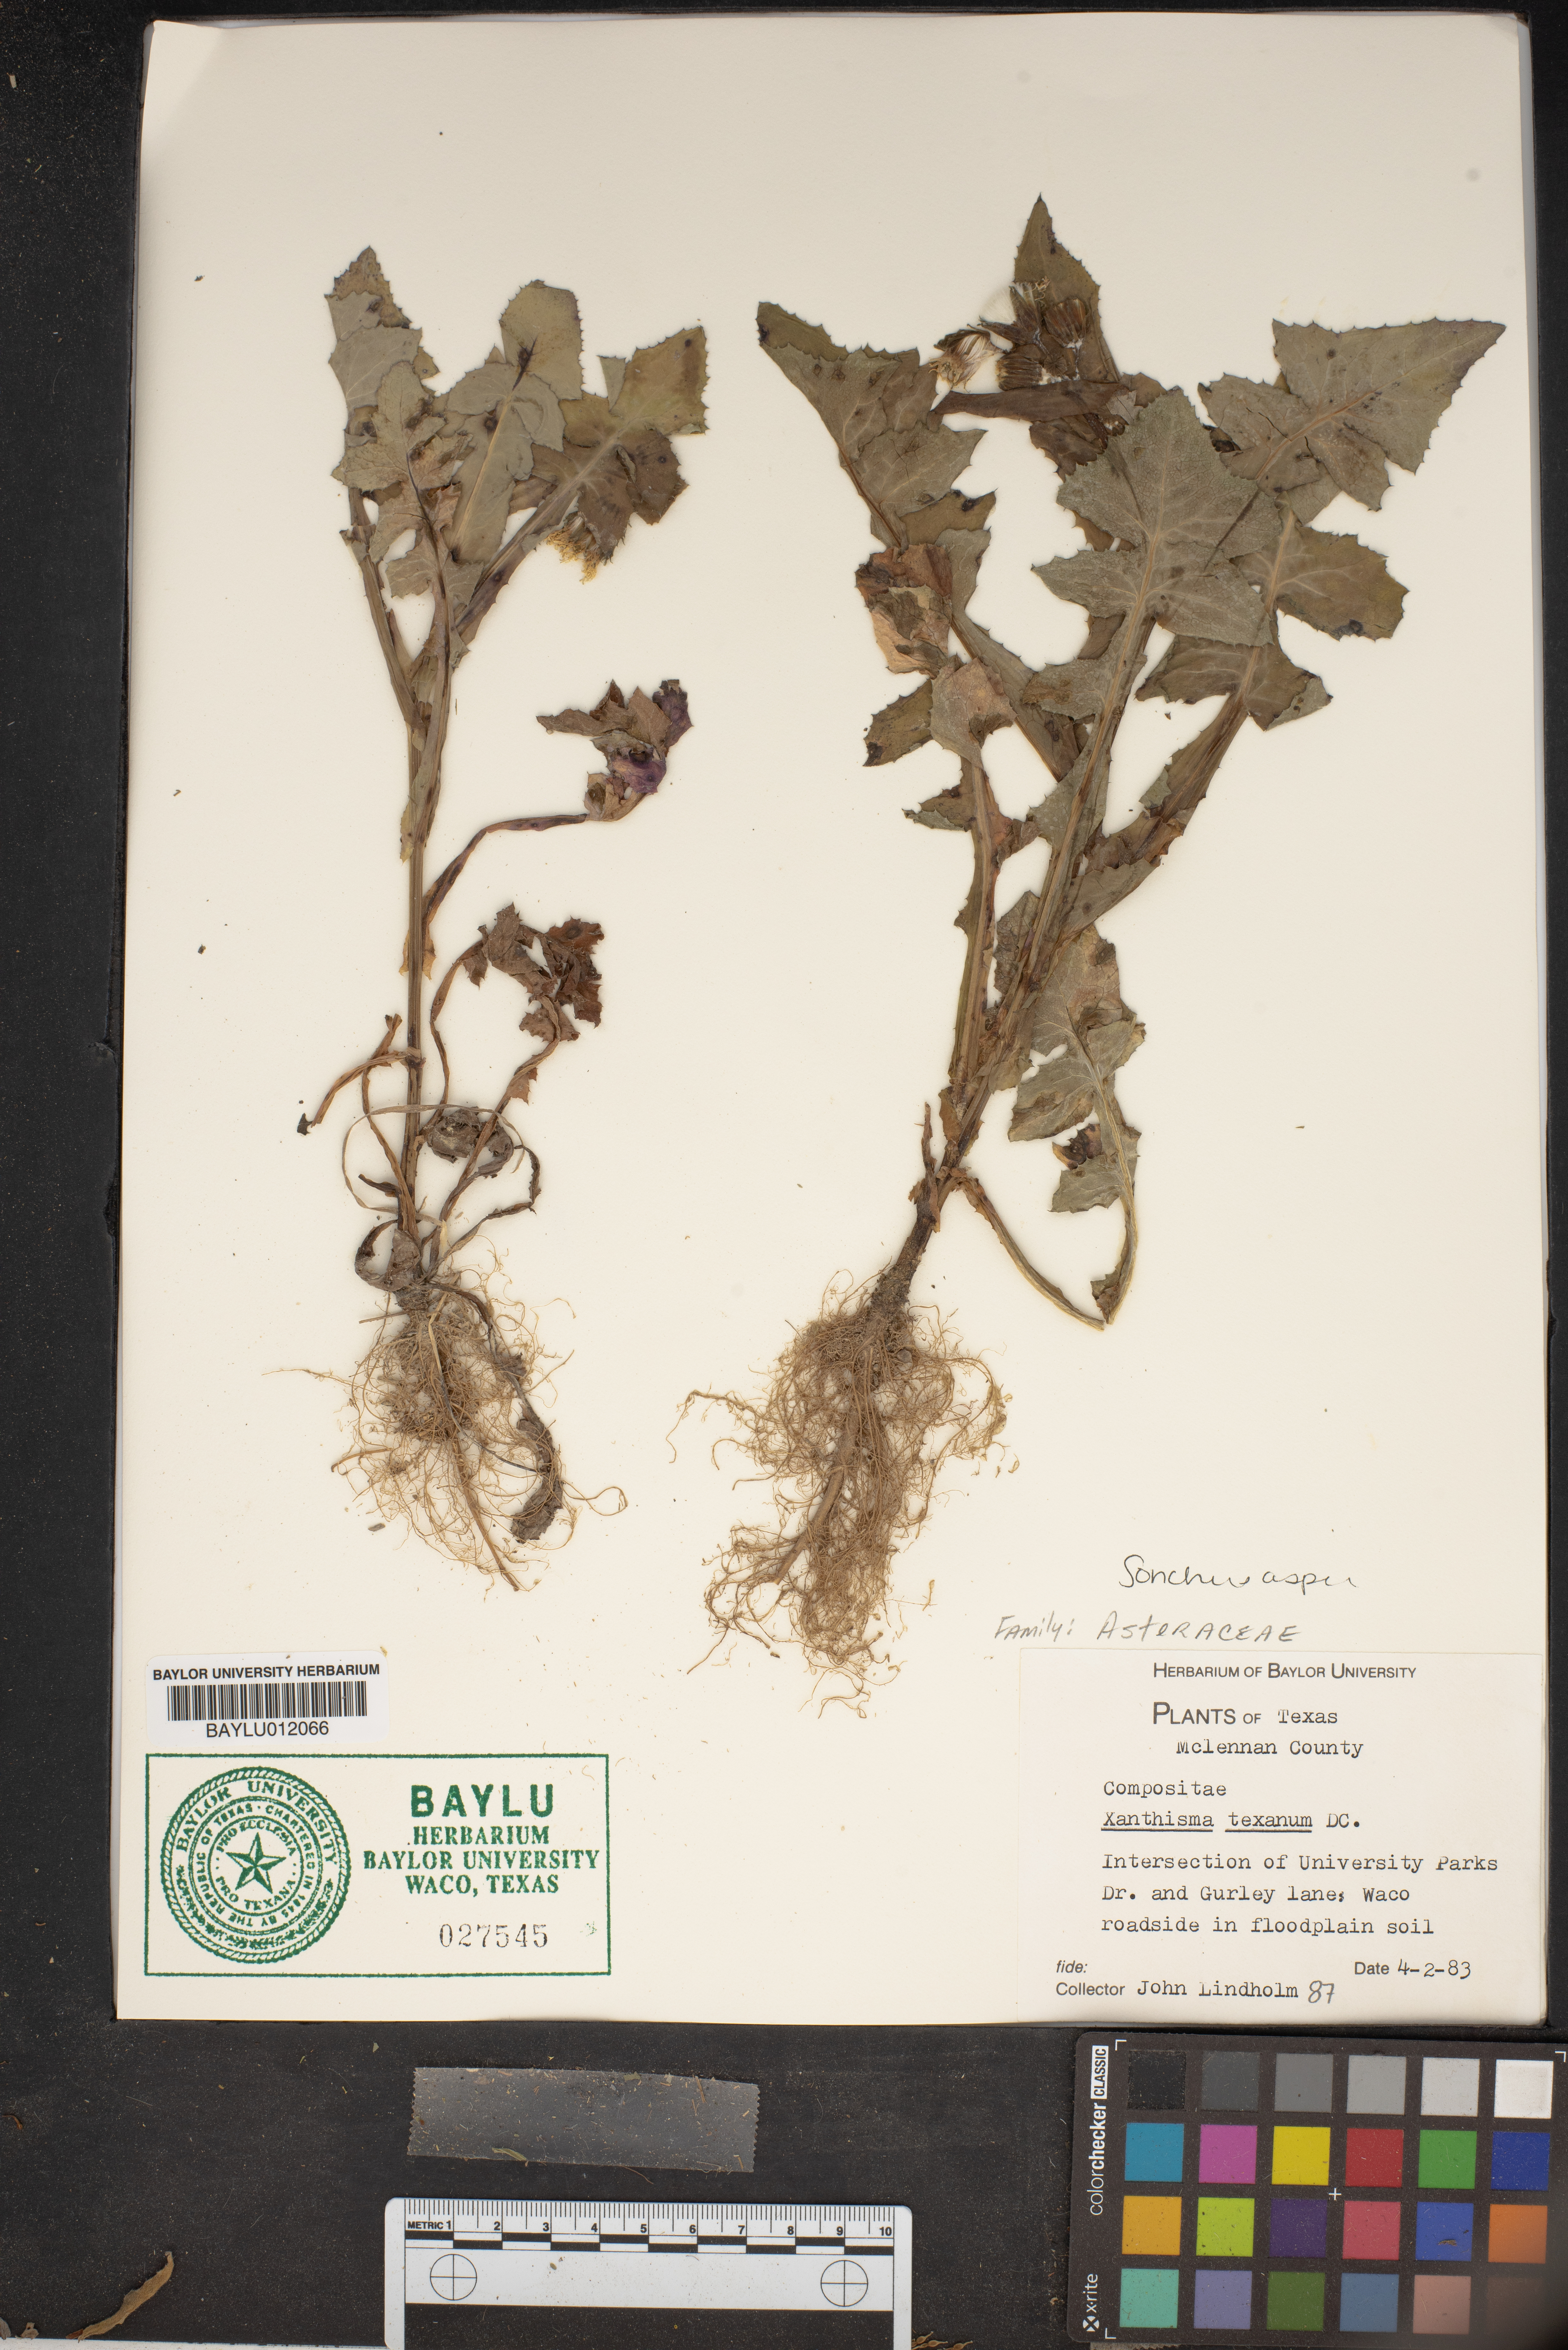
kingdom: Plantae
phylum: Tracheophyta
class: Magnoliopsida
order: Asterales
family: Asteraceae
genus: Xanthisma
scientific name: Xanthisma texanum
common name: Texas sleepy daisy
